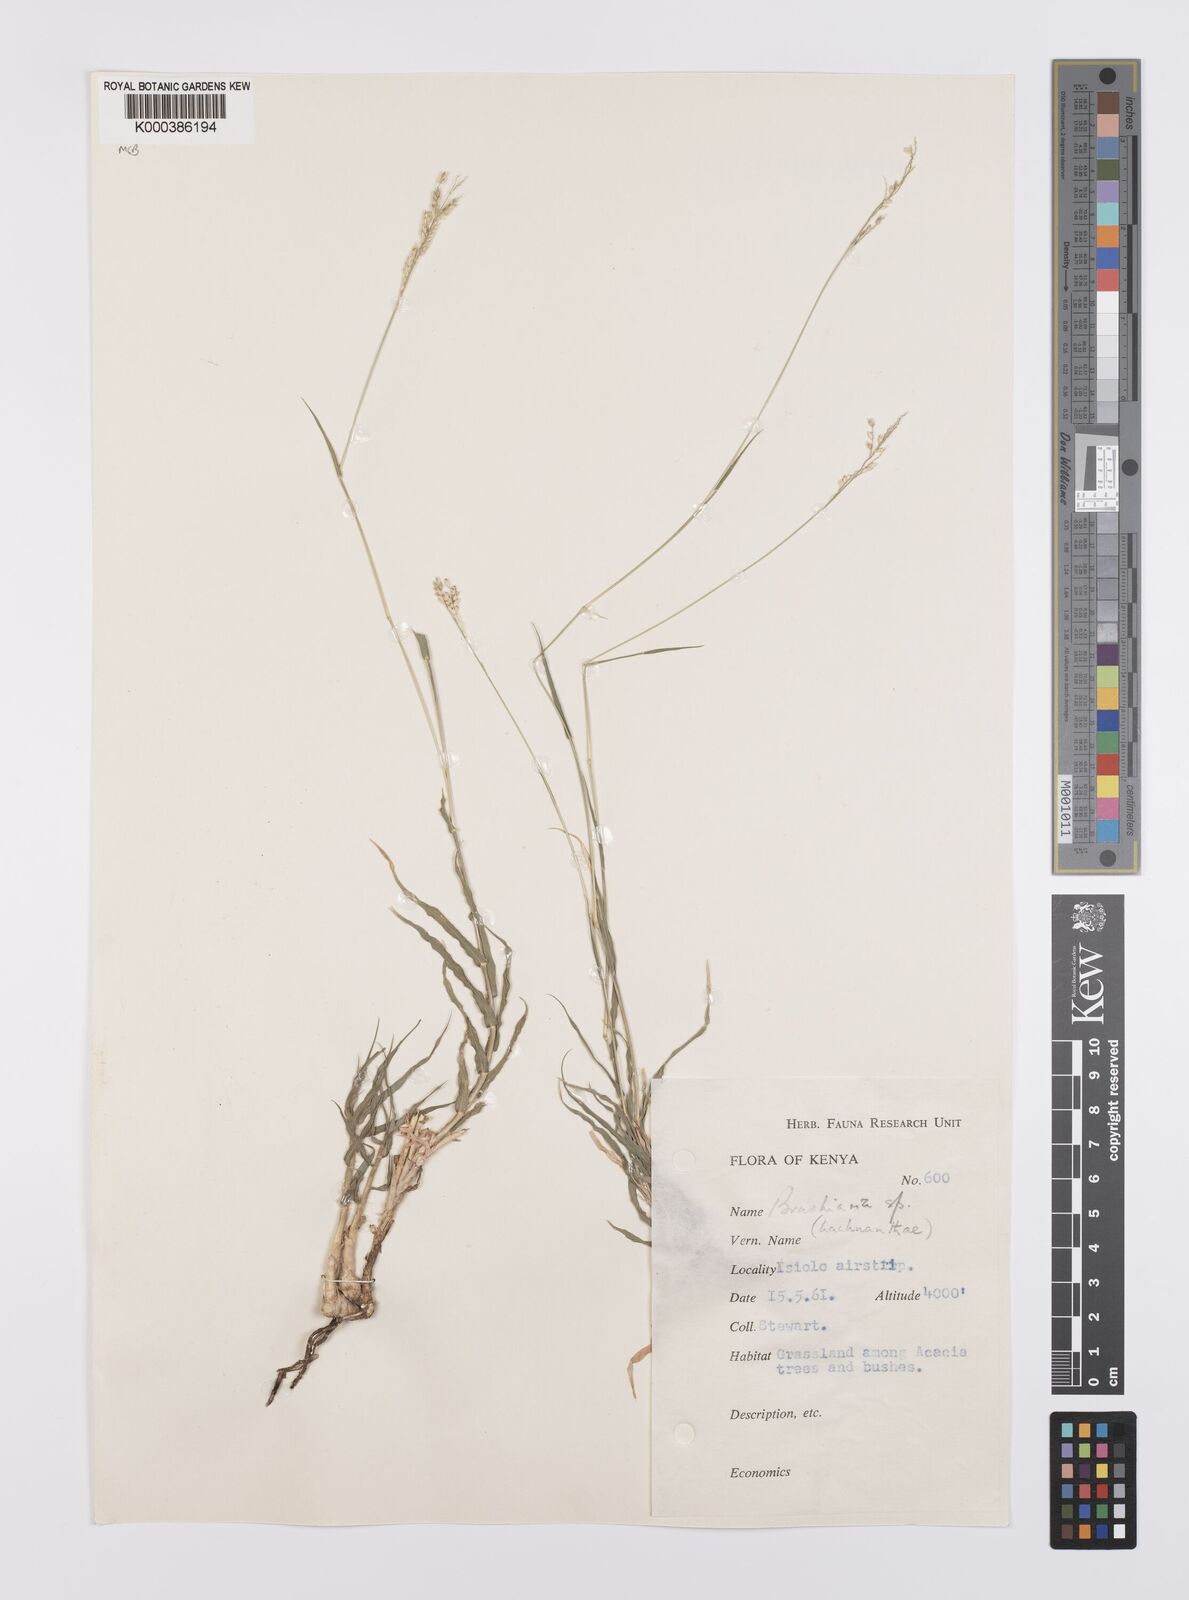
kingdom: Plantae
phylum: Tracheophyta
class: Liliopsida
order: Poales
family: Poaceae
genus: Urochloa
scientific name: Urochloa Brachiaria ambigens
